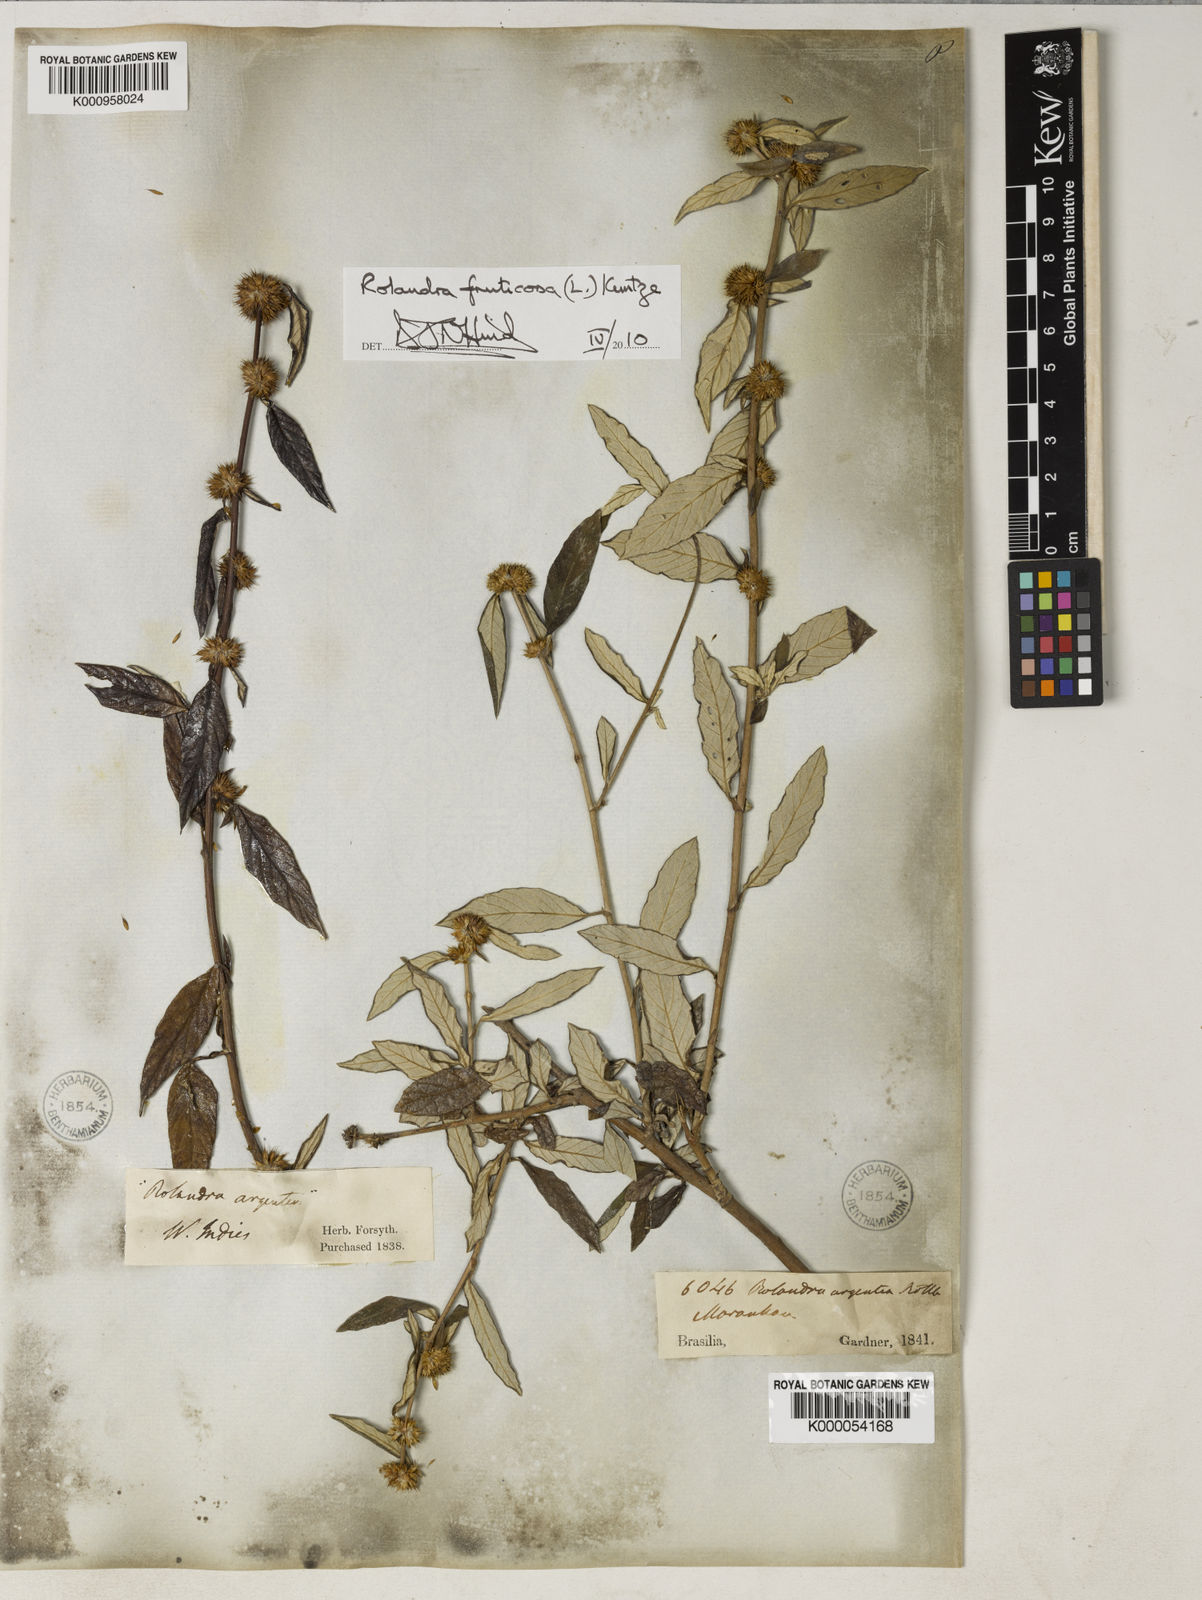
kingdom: Plantae
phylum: Tracheophyta
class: Magnoliopsida
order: Asterales
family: Asteraceae
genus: Rolandra
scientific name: Rolandra fruticosa
